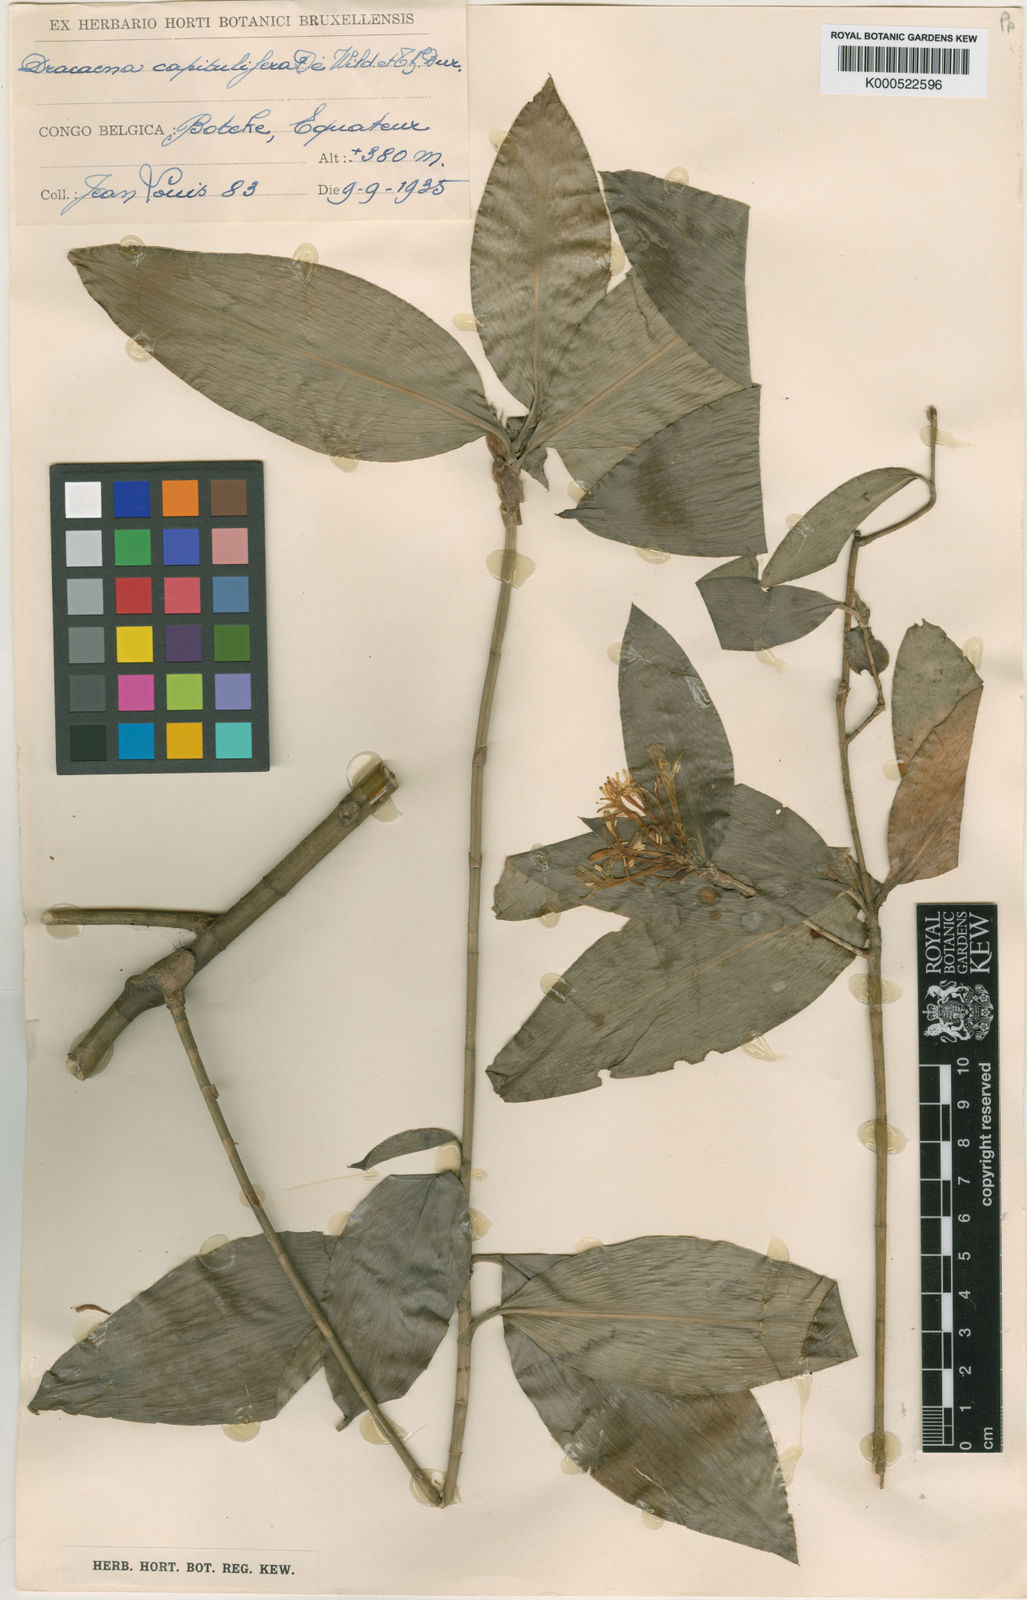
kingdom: Plantae
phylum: Tracheophyta
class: Liliopsida
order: Asparagales
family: Asparagaceae
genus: Dracaena
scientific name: Dracaena camerooniana
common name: Dragon tree
